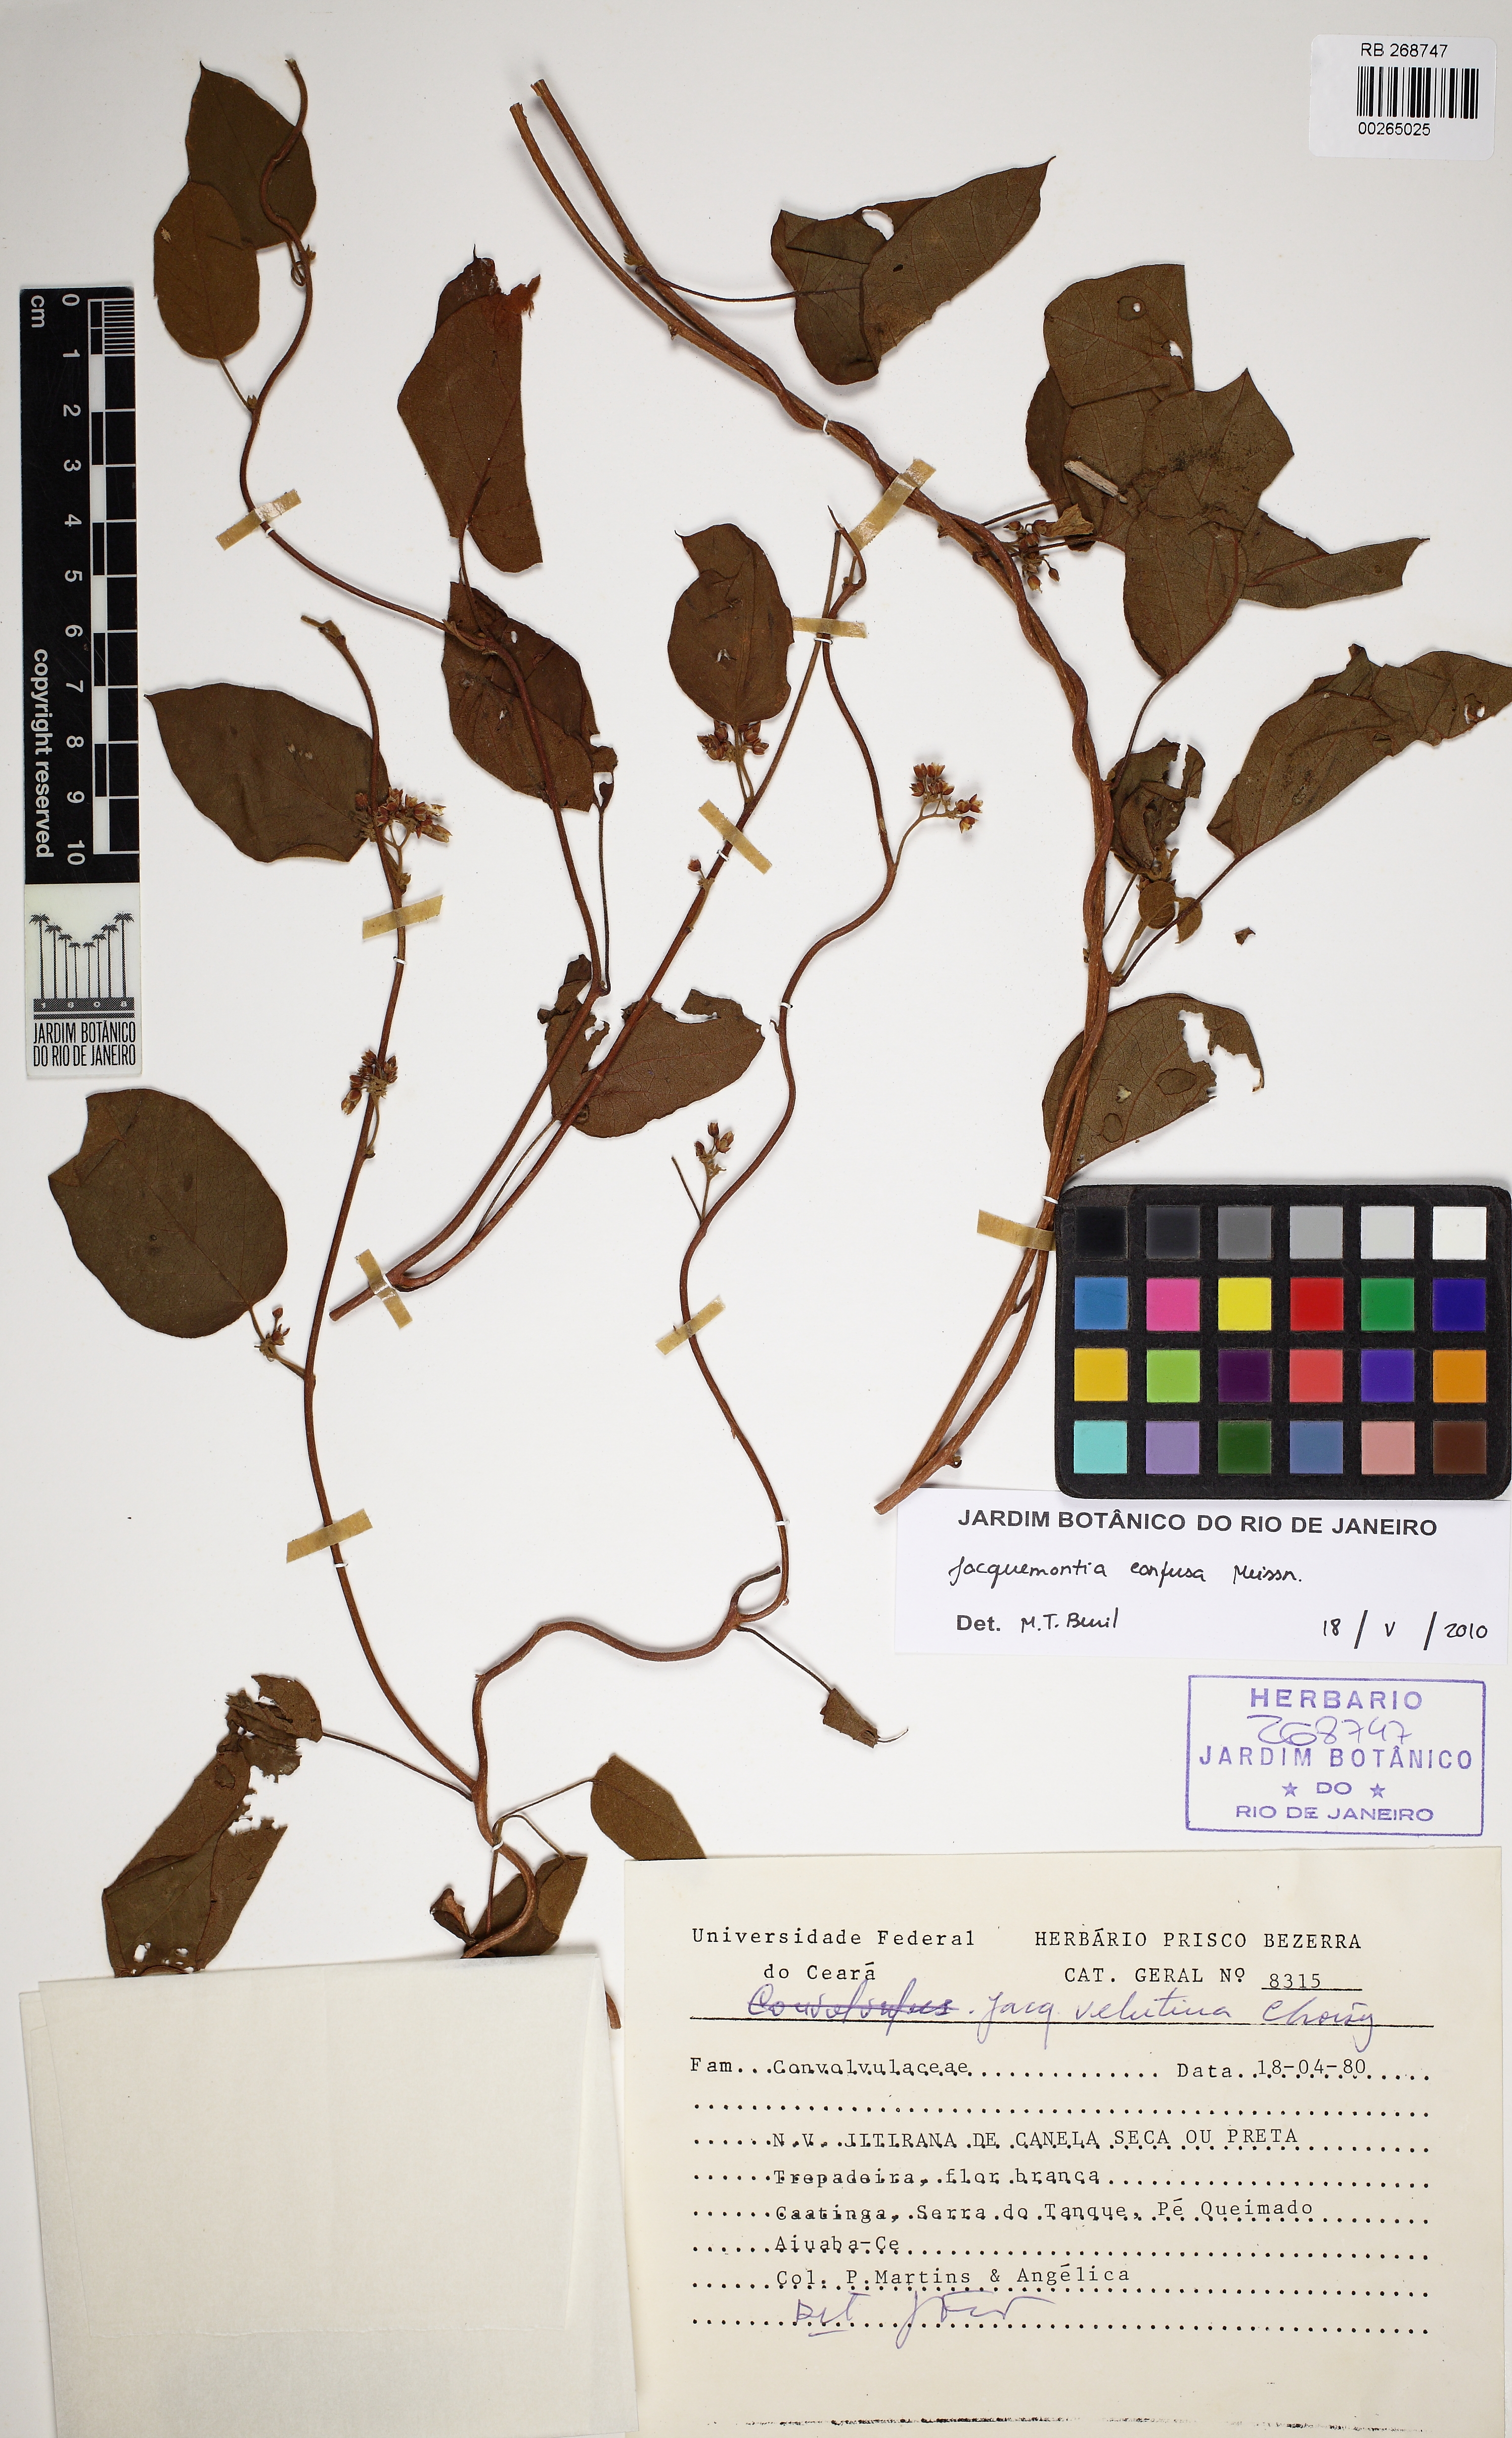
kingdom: Plantae
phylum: Tracheophyta
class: Magnoliopsida
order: Solanales
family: Convolvulaceae
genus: Jacquemontia
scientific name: Jacquemontia velutina
